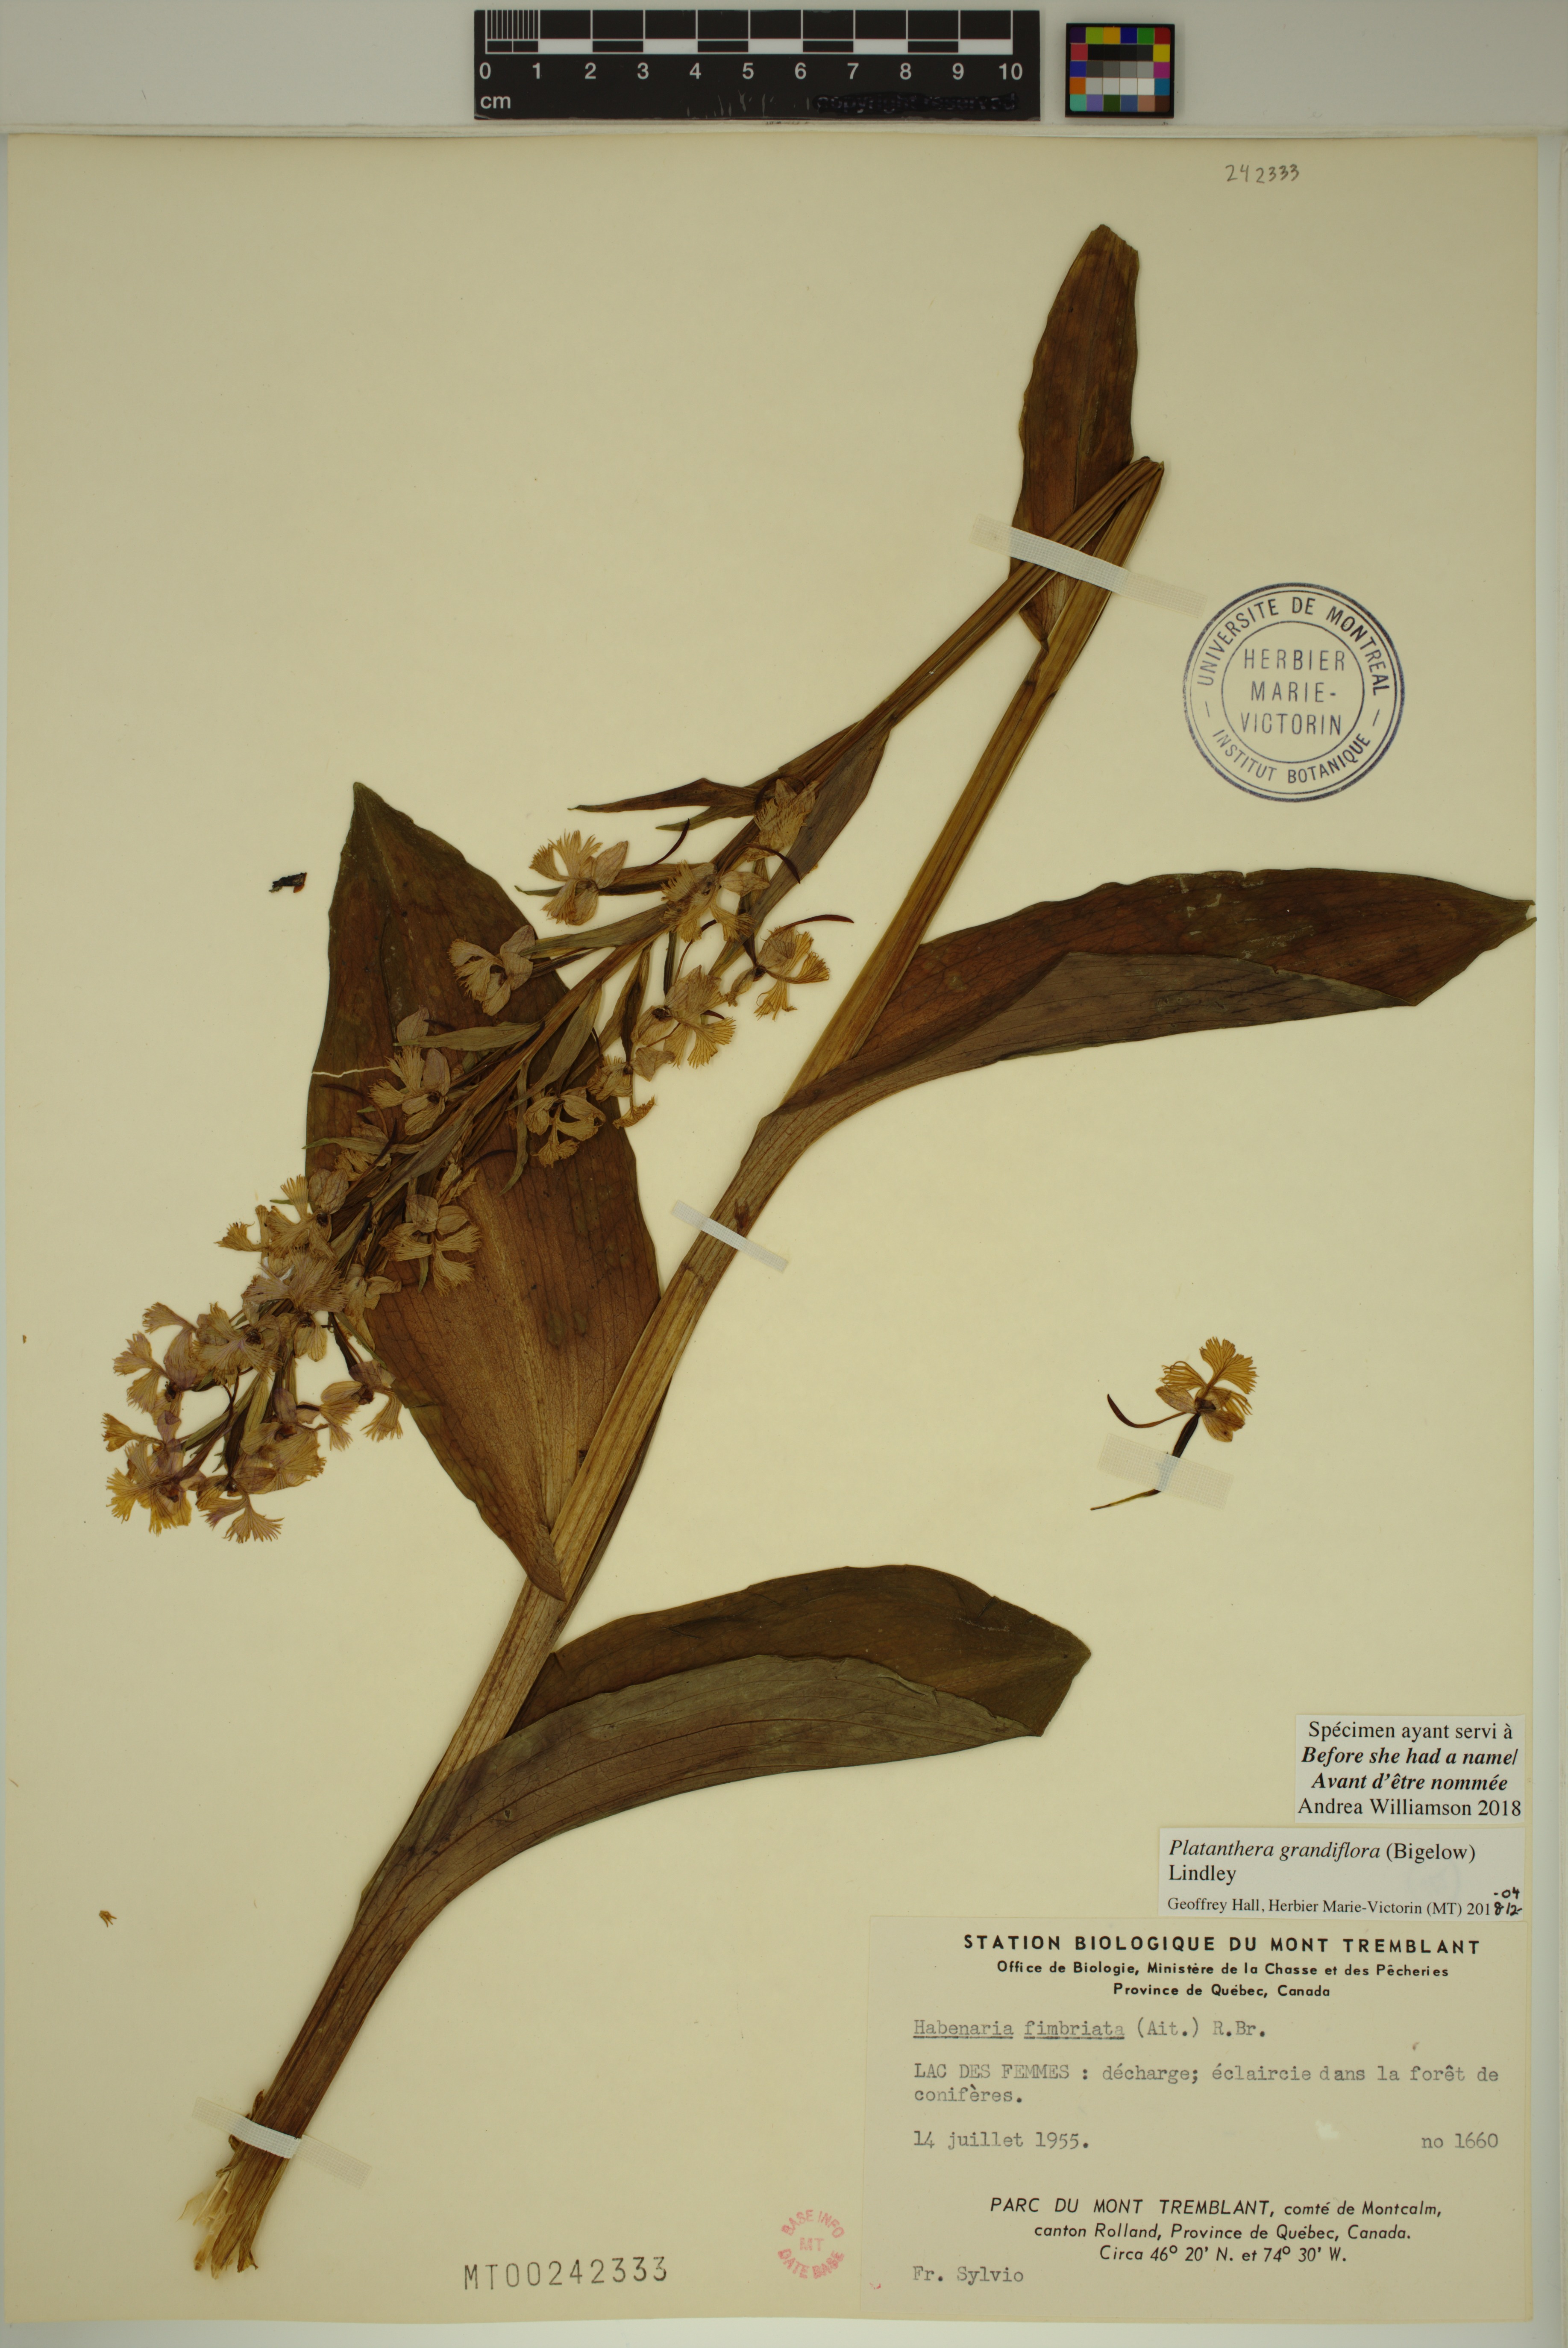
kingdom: Plantae
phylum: Tracheophyta
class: Liliopsida
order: Asparagales
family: Orchidaceae
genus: Platanthera
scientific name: Platanthera grandiflora
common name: Greater purple fringed orchid
